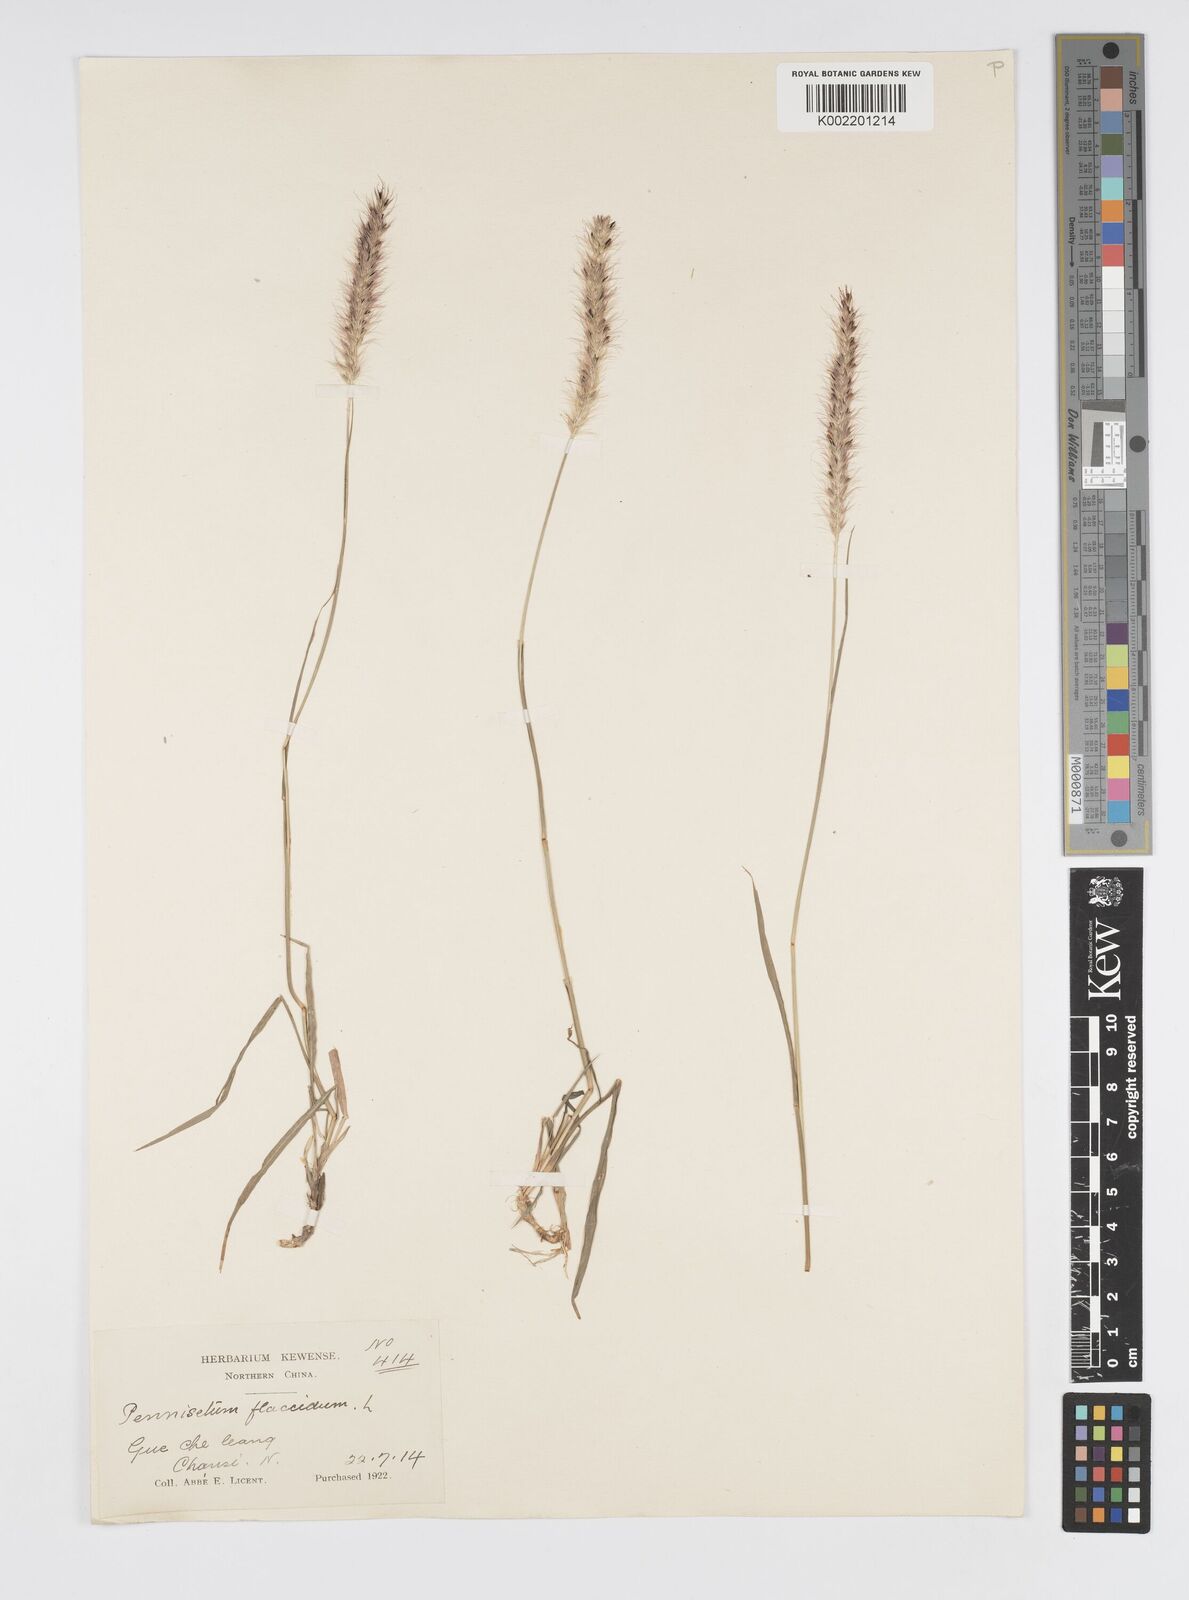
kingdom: Plantae
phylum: Tracheophyta
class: Liliopsida
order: Poales
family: Poaceae
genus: Cenchrus
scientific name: Cenchrus flaccidus
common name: Flaccid grass
